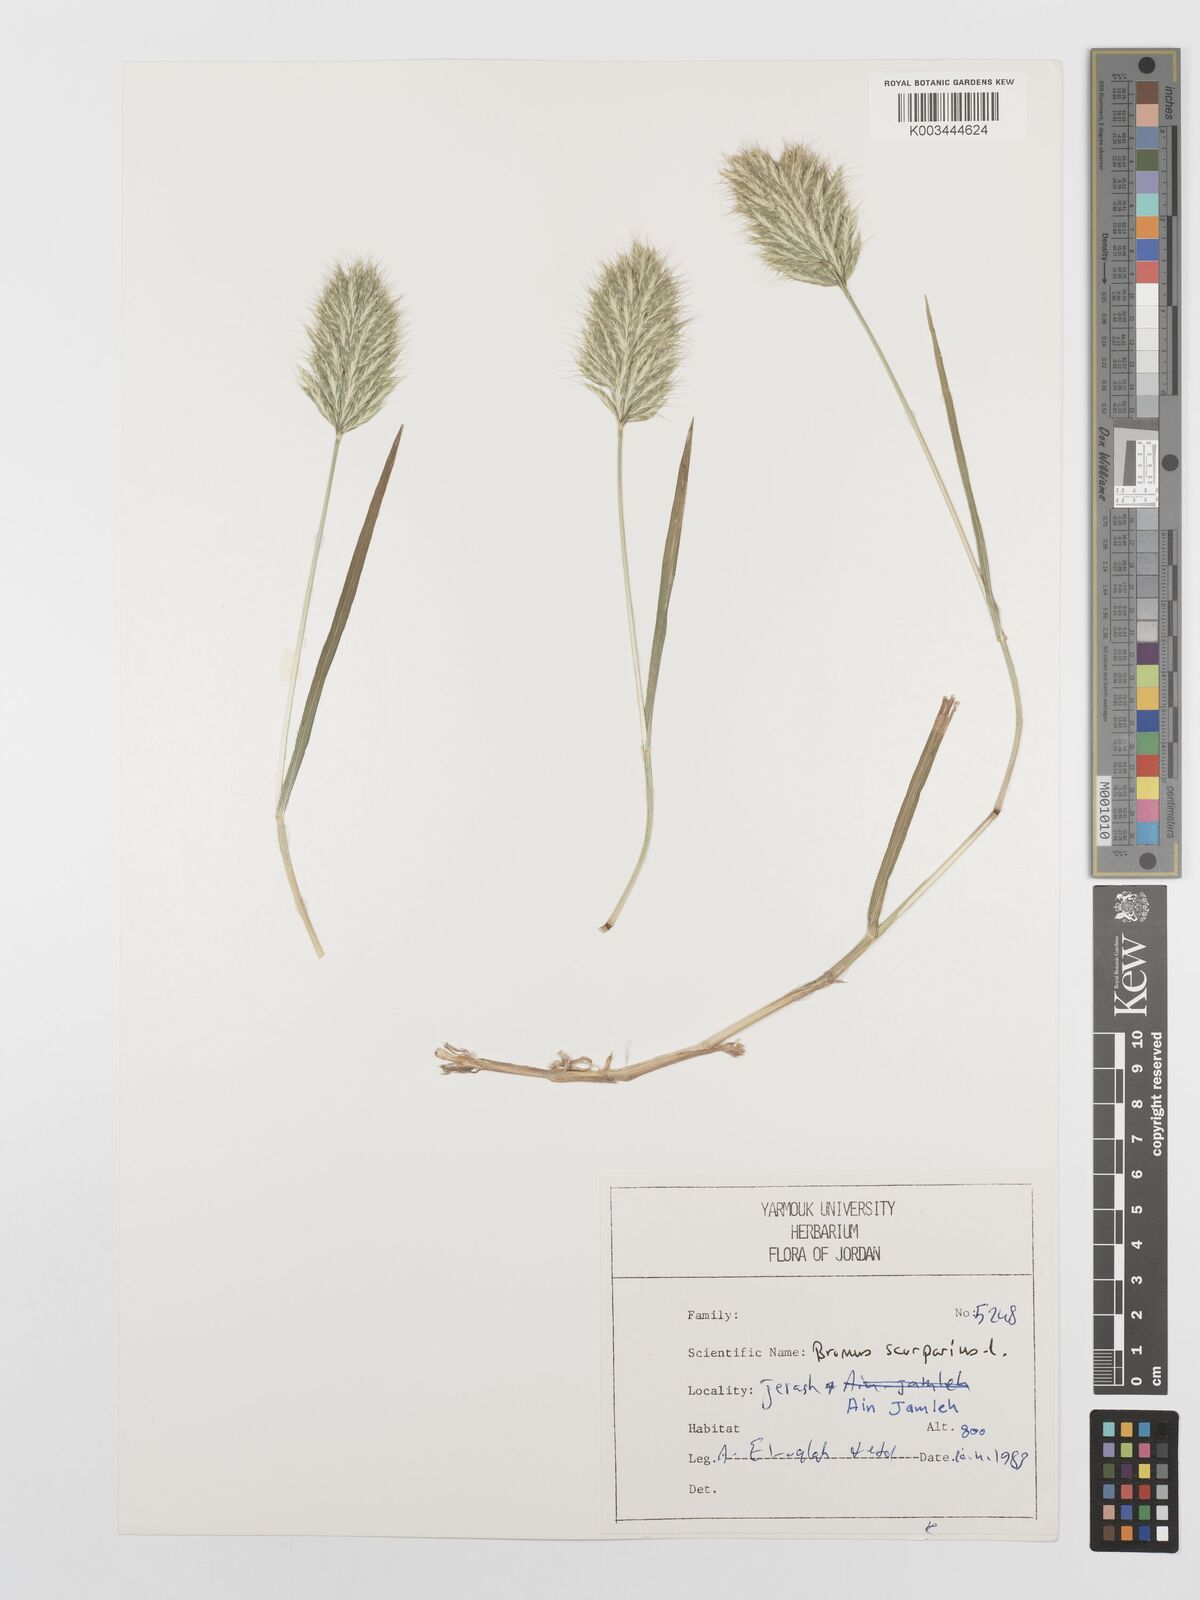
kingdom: Plantae
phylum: Tracheophyta
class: Liliopsida
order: Poales
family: Poaceae
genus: Bromus
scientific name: Bromus scoparius
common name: Broom brome
